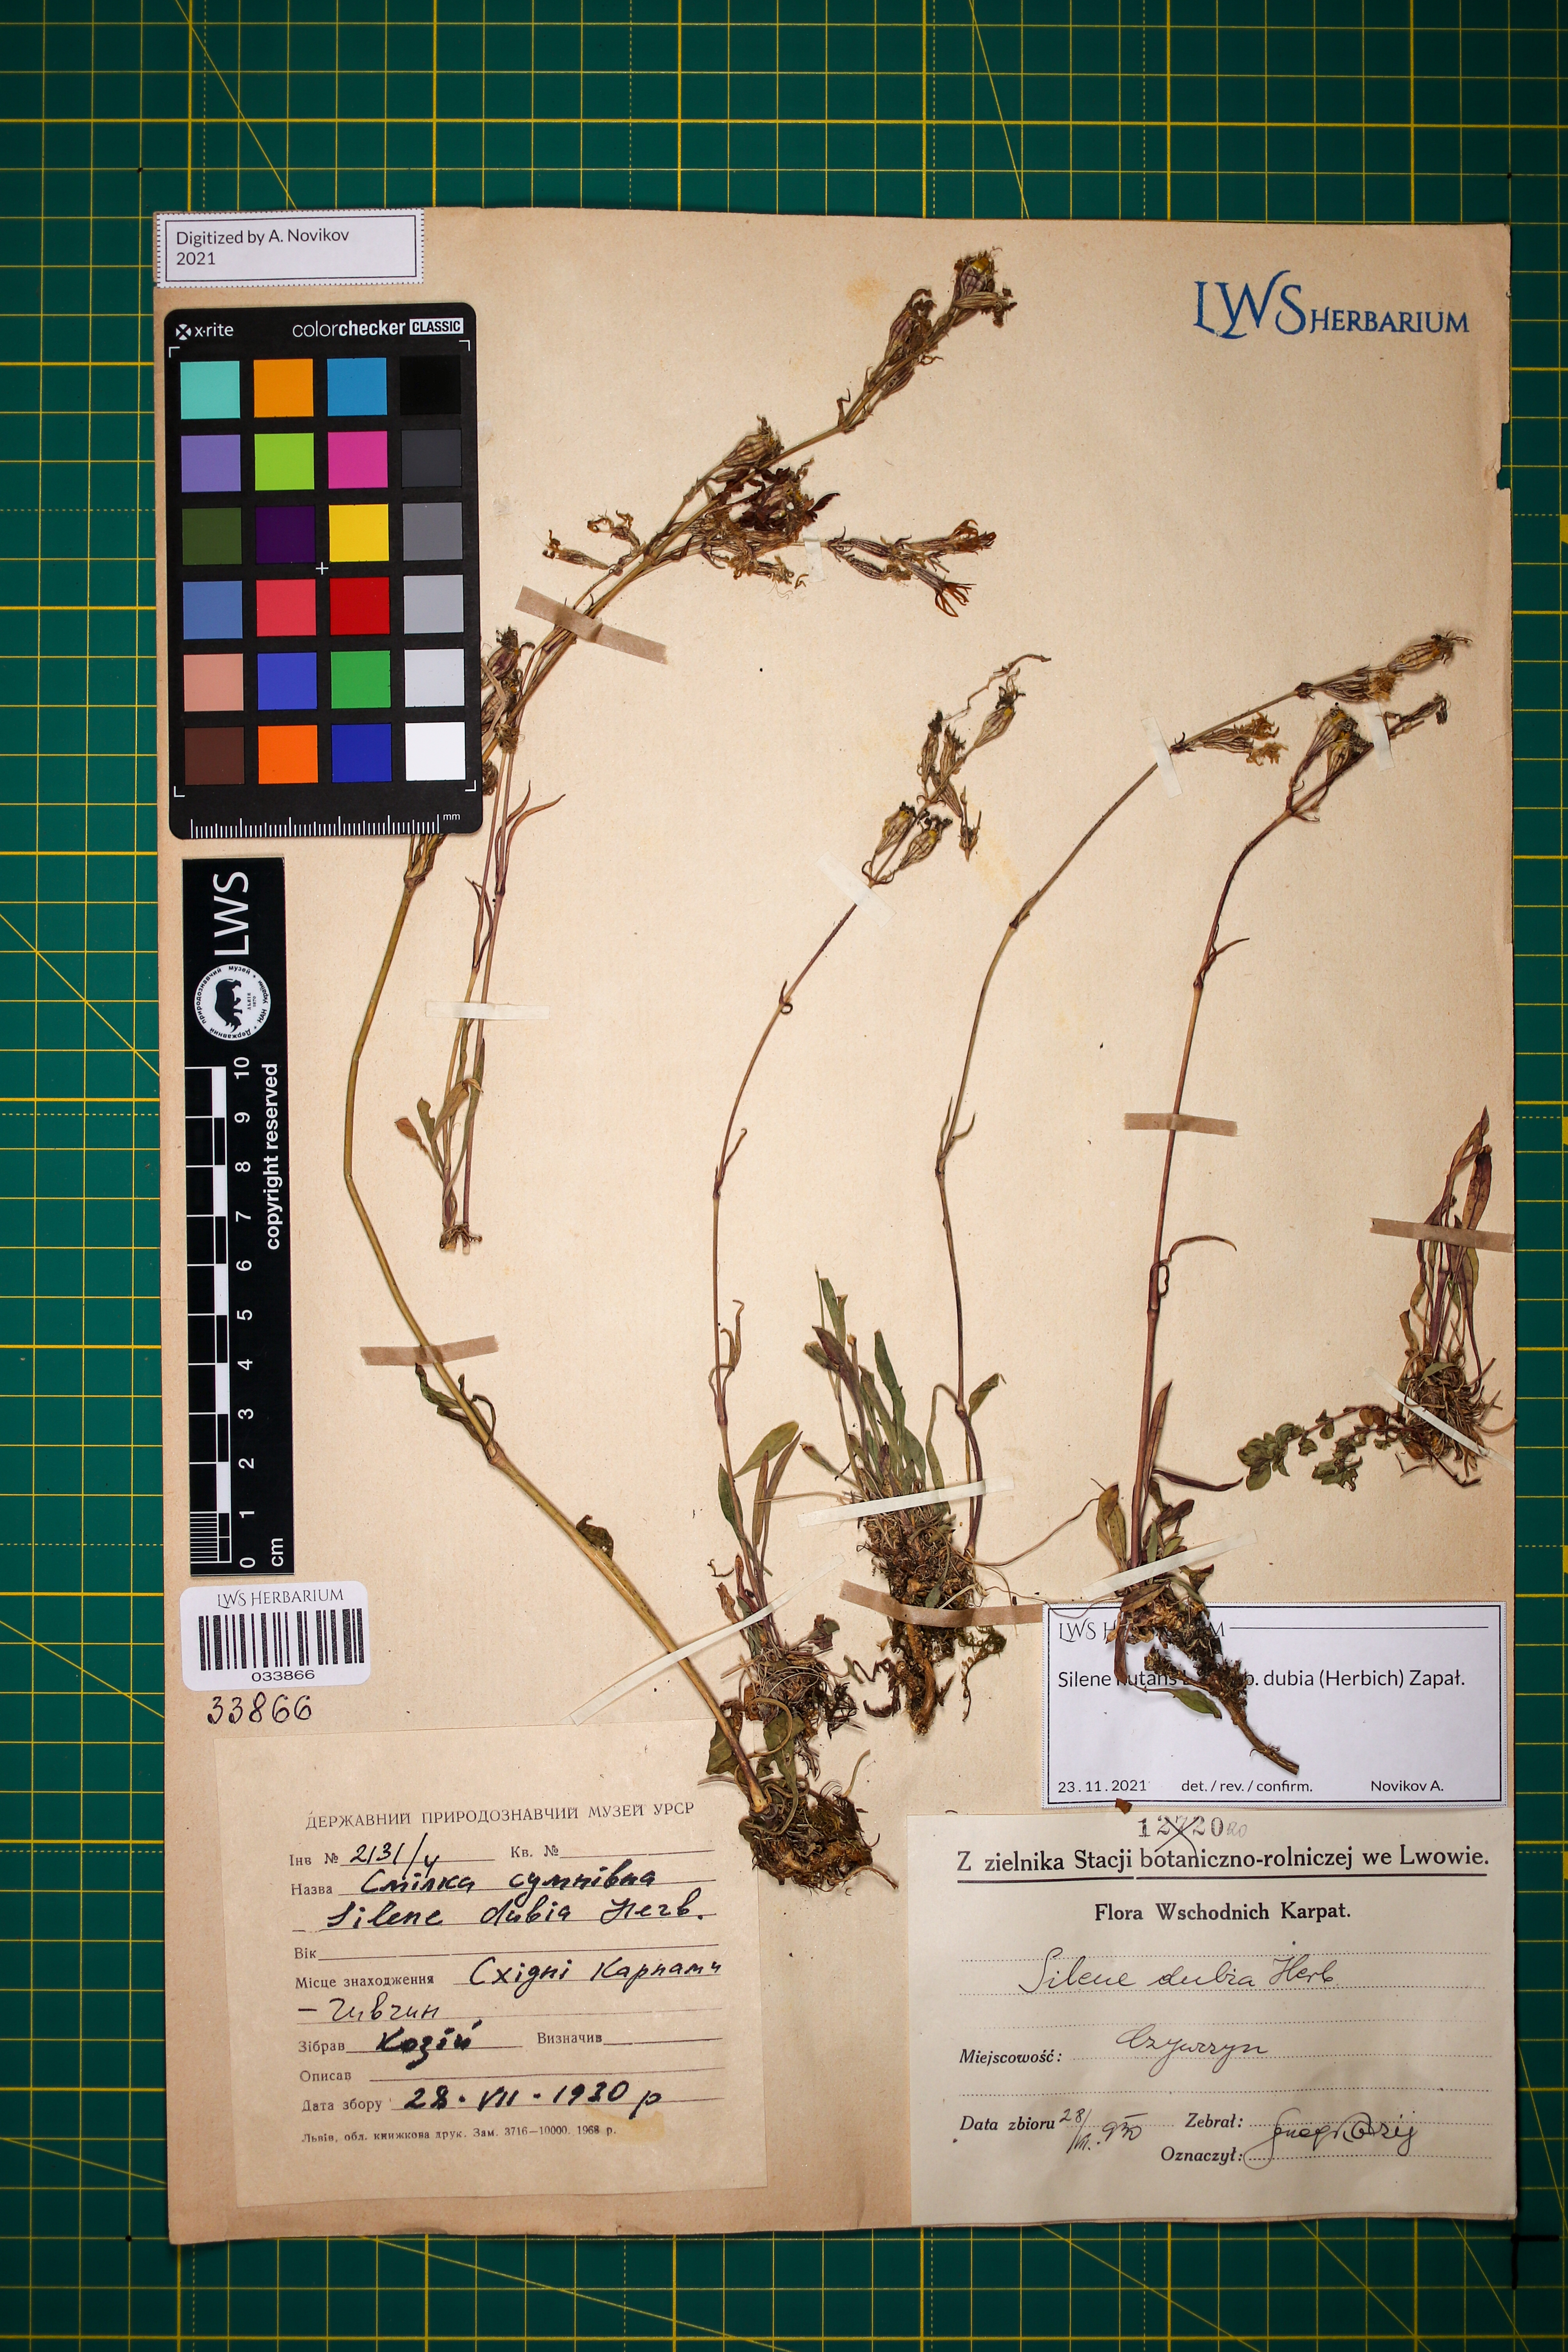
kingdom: Plantae
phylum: Tracheophyta
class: Magnoliopsida
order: Caryophyllales
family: Caryophyllaceae
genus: Silene
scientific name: Silene nutans
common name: Nottingham catchfly
